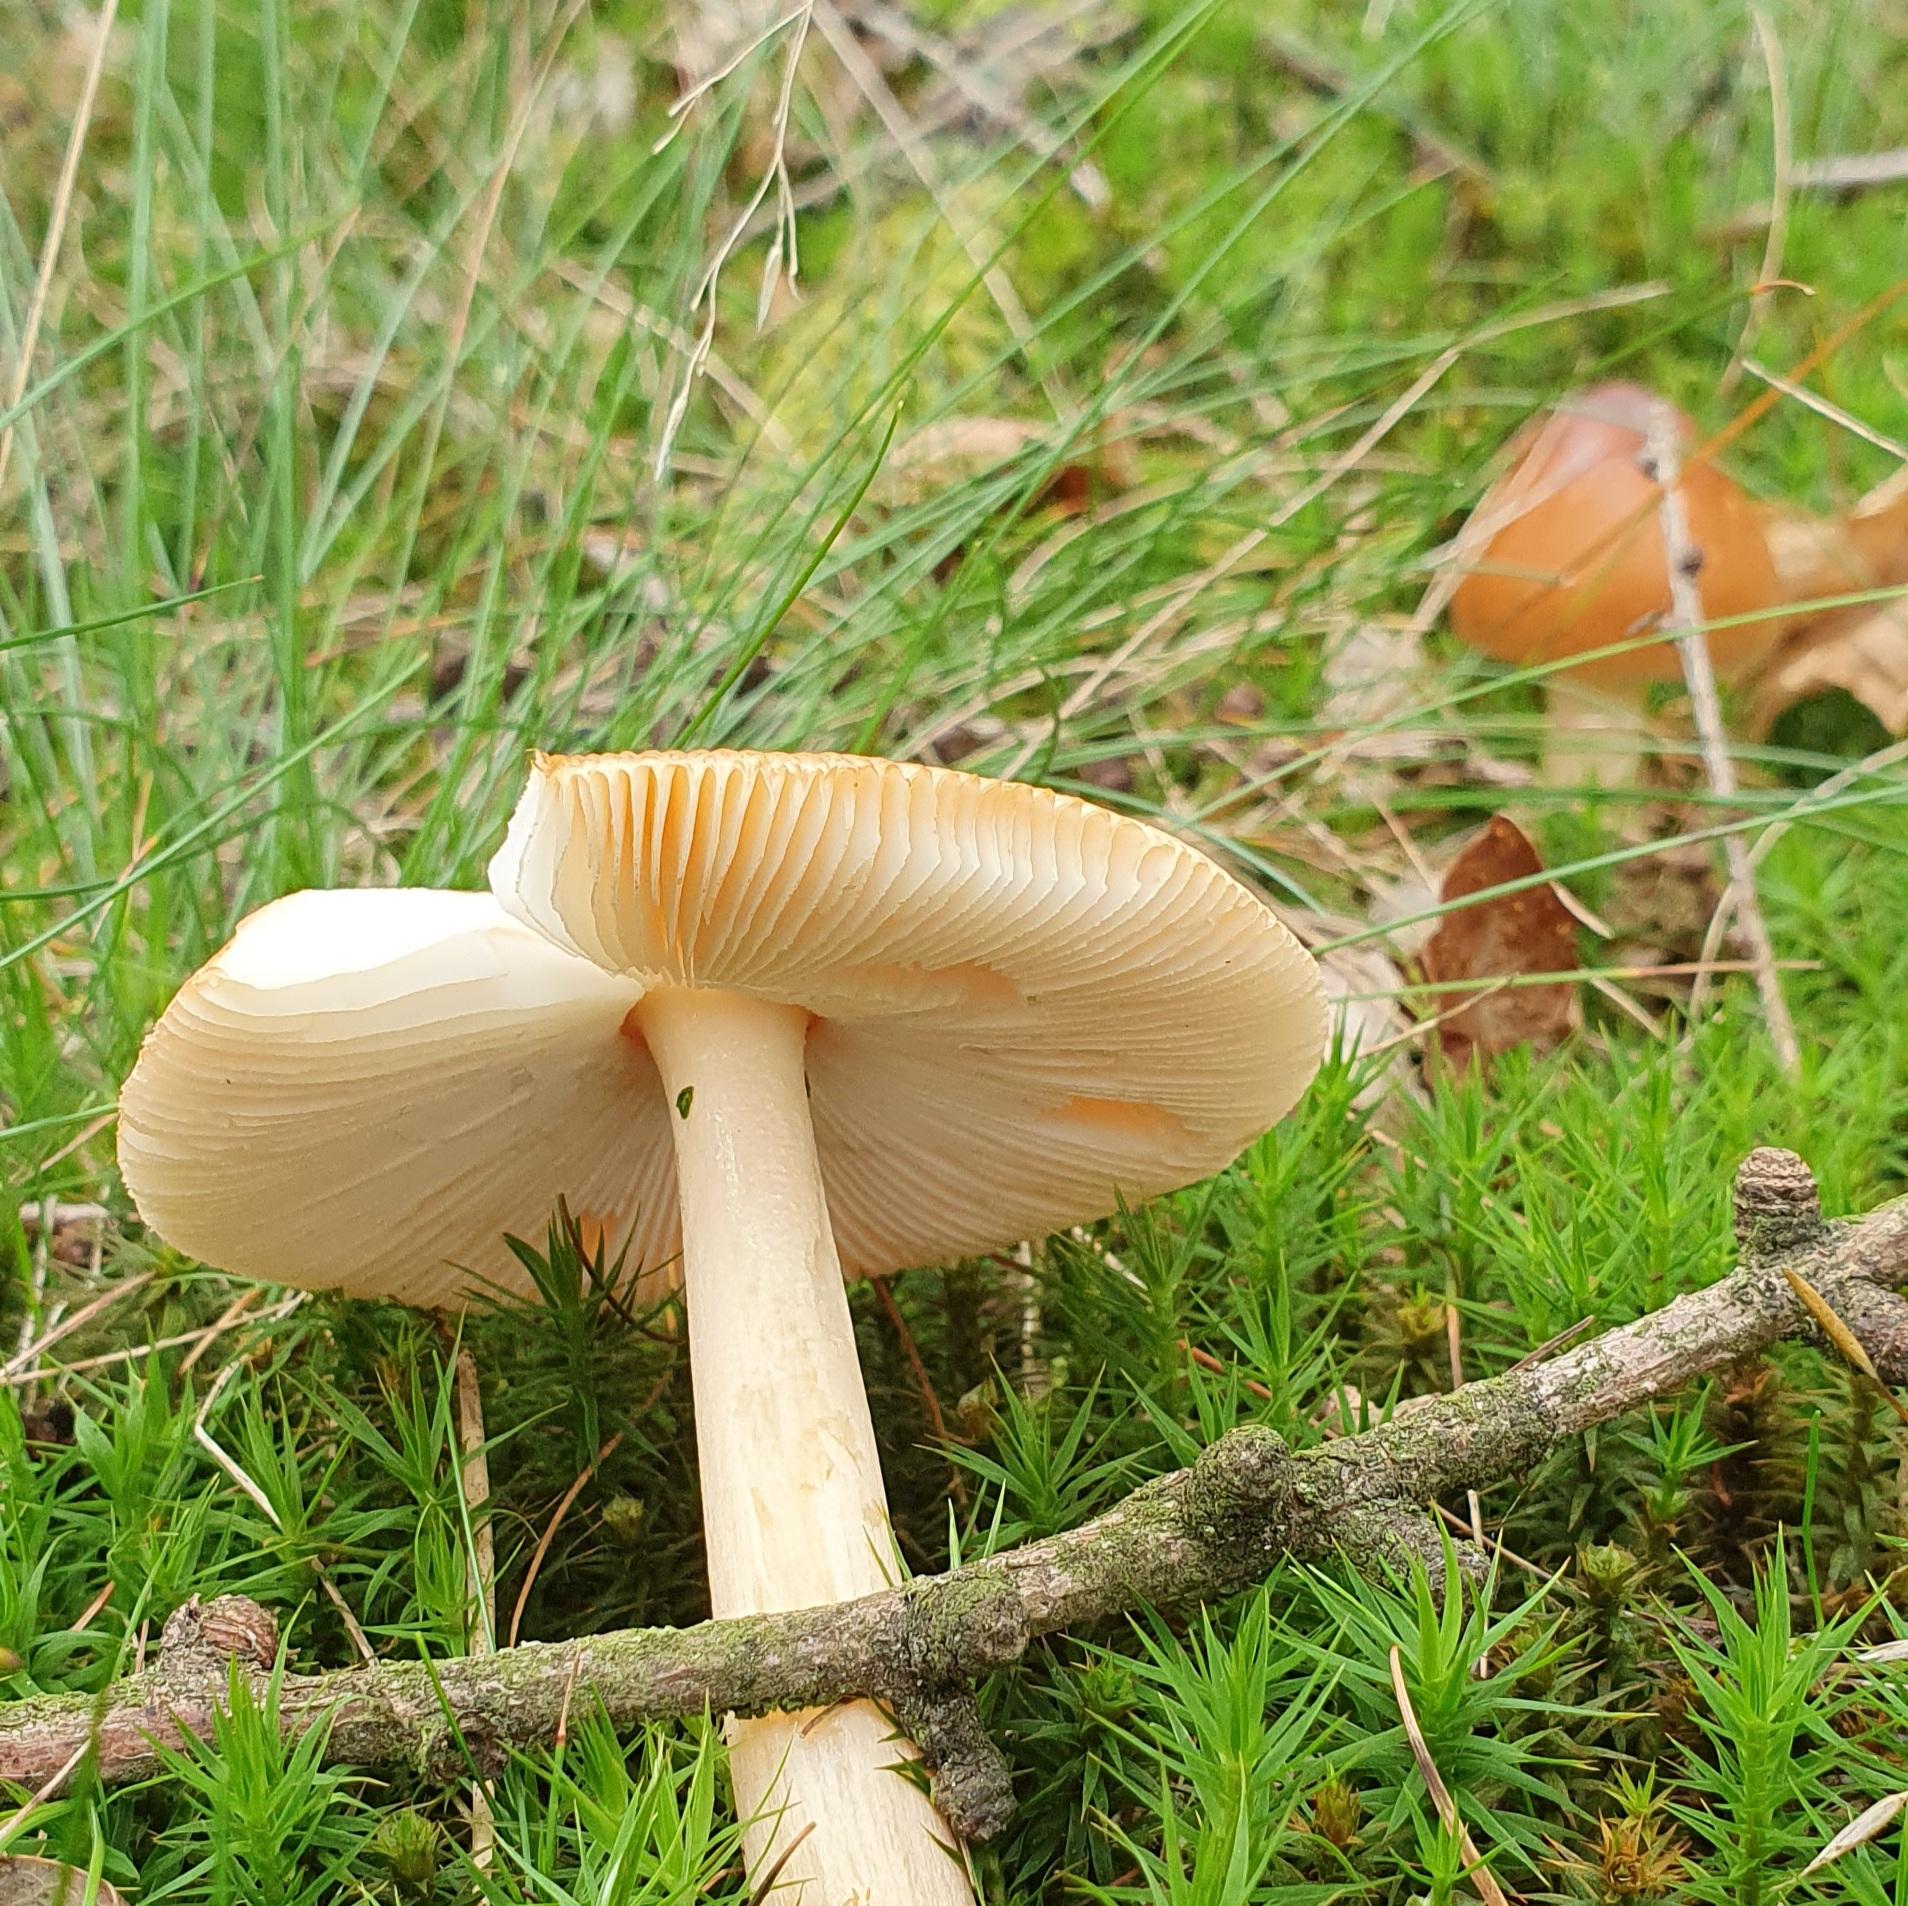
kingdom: Fungi
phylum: Basidiomycota
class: Agaricomycetes
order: Agaricales
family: Amanitaceae
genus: Amanita
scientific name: Amanita fulva
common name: brun kam-fluesvamp
